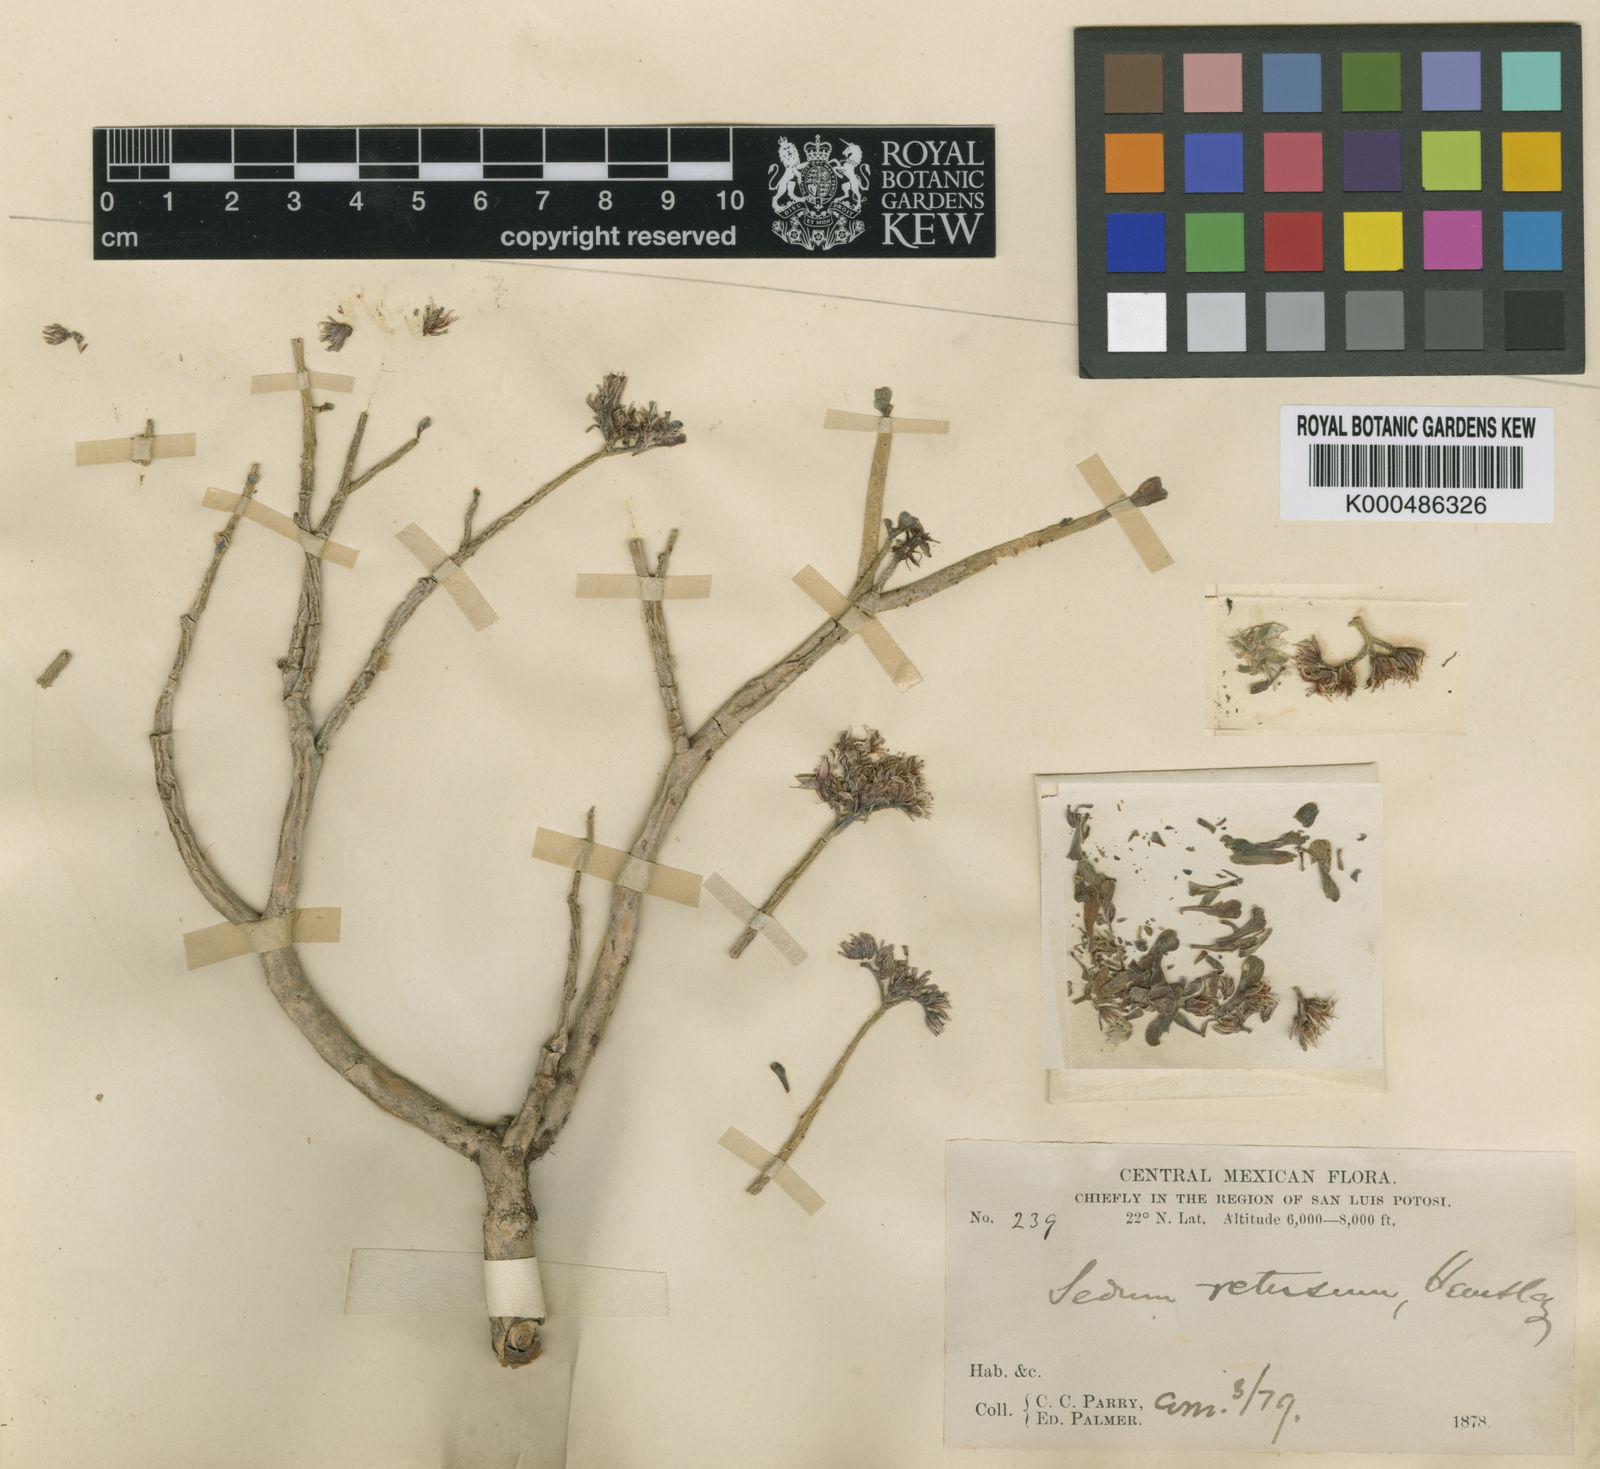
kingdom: Plantae
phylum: Tracheophyta
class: Magnoliopsida
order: Saxifragales
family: Crassulaceae
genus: Sedum
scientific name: Sedum retusum
